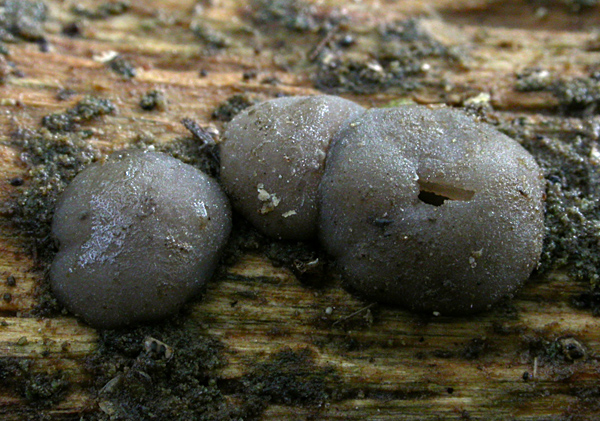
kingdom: Fungi
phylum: Ascomycota
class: Pezizomycetes
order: Pezizales
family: Ascobolaceae
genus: Thecotheus
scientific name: Thecotheus rivicola
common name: bæk-prikbæger
